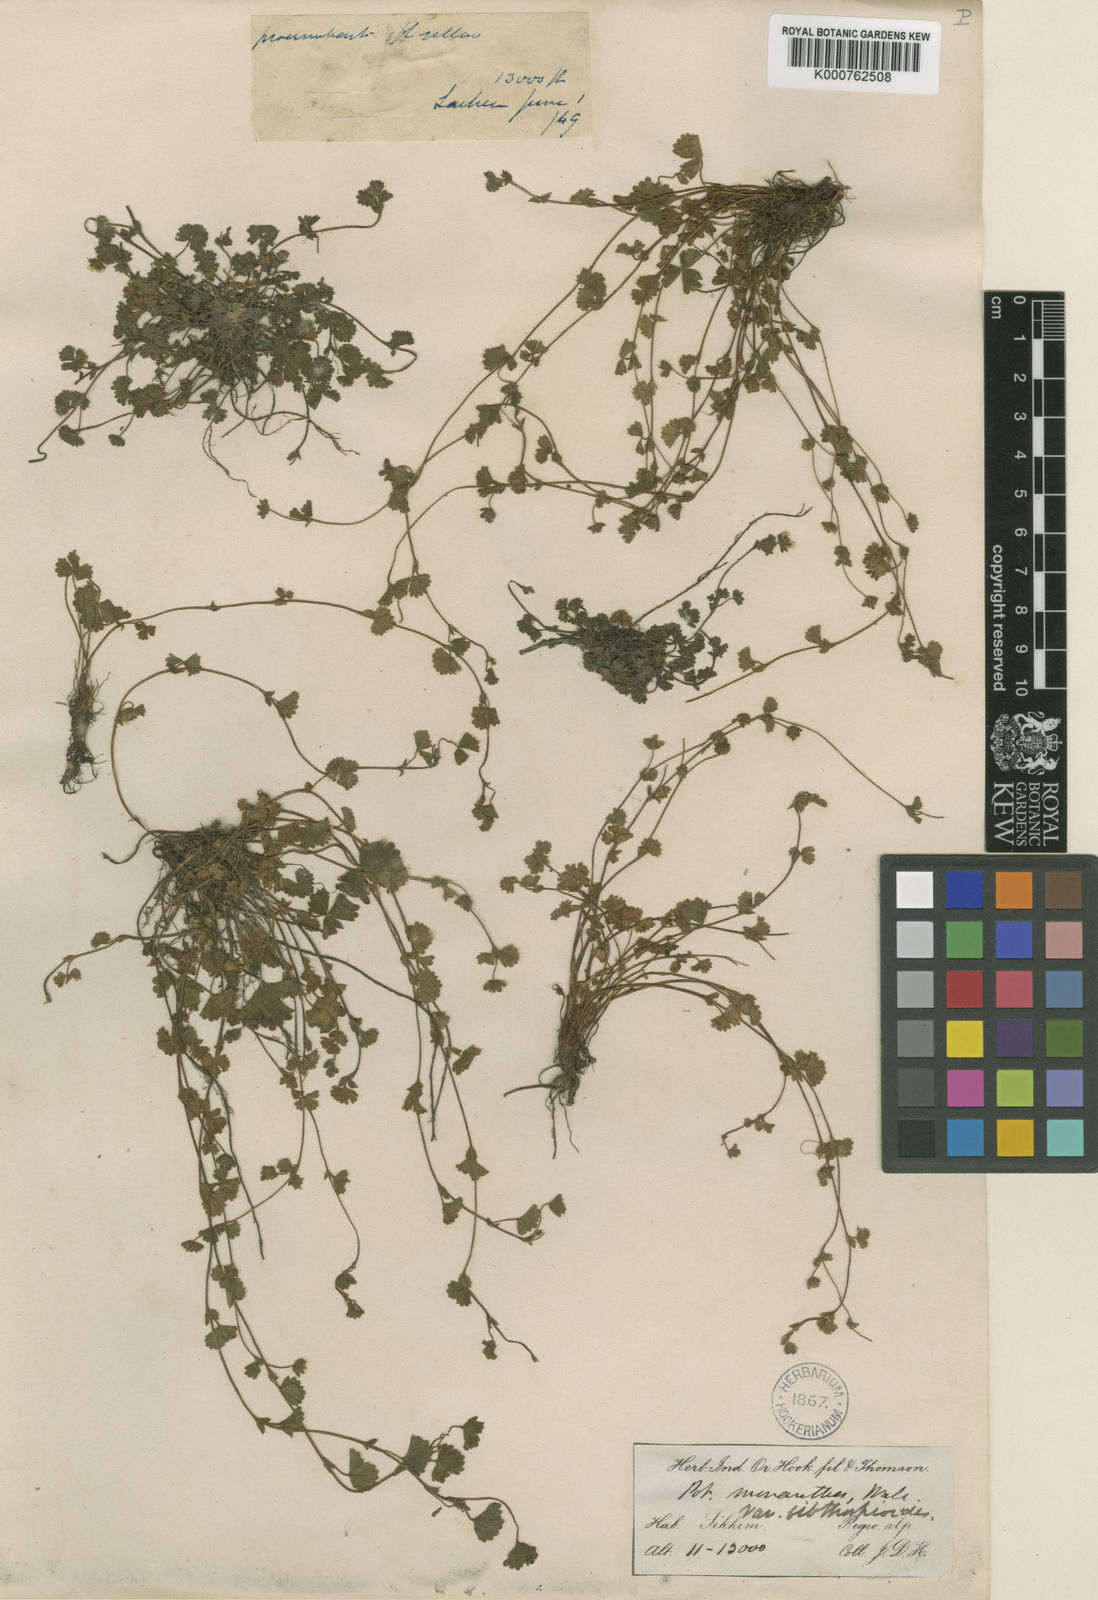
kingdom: Plantae
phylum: Tracheophyta
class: Magnoliopsida
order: Rosales
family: Rosaceae
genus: Potentilla
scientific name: Potentilla
